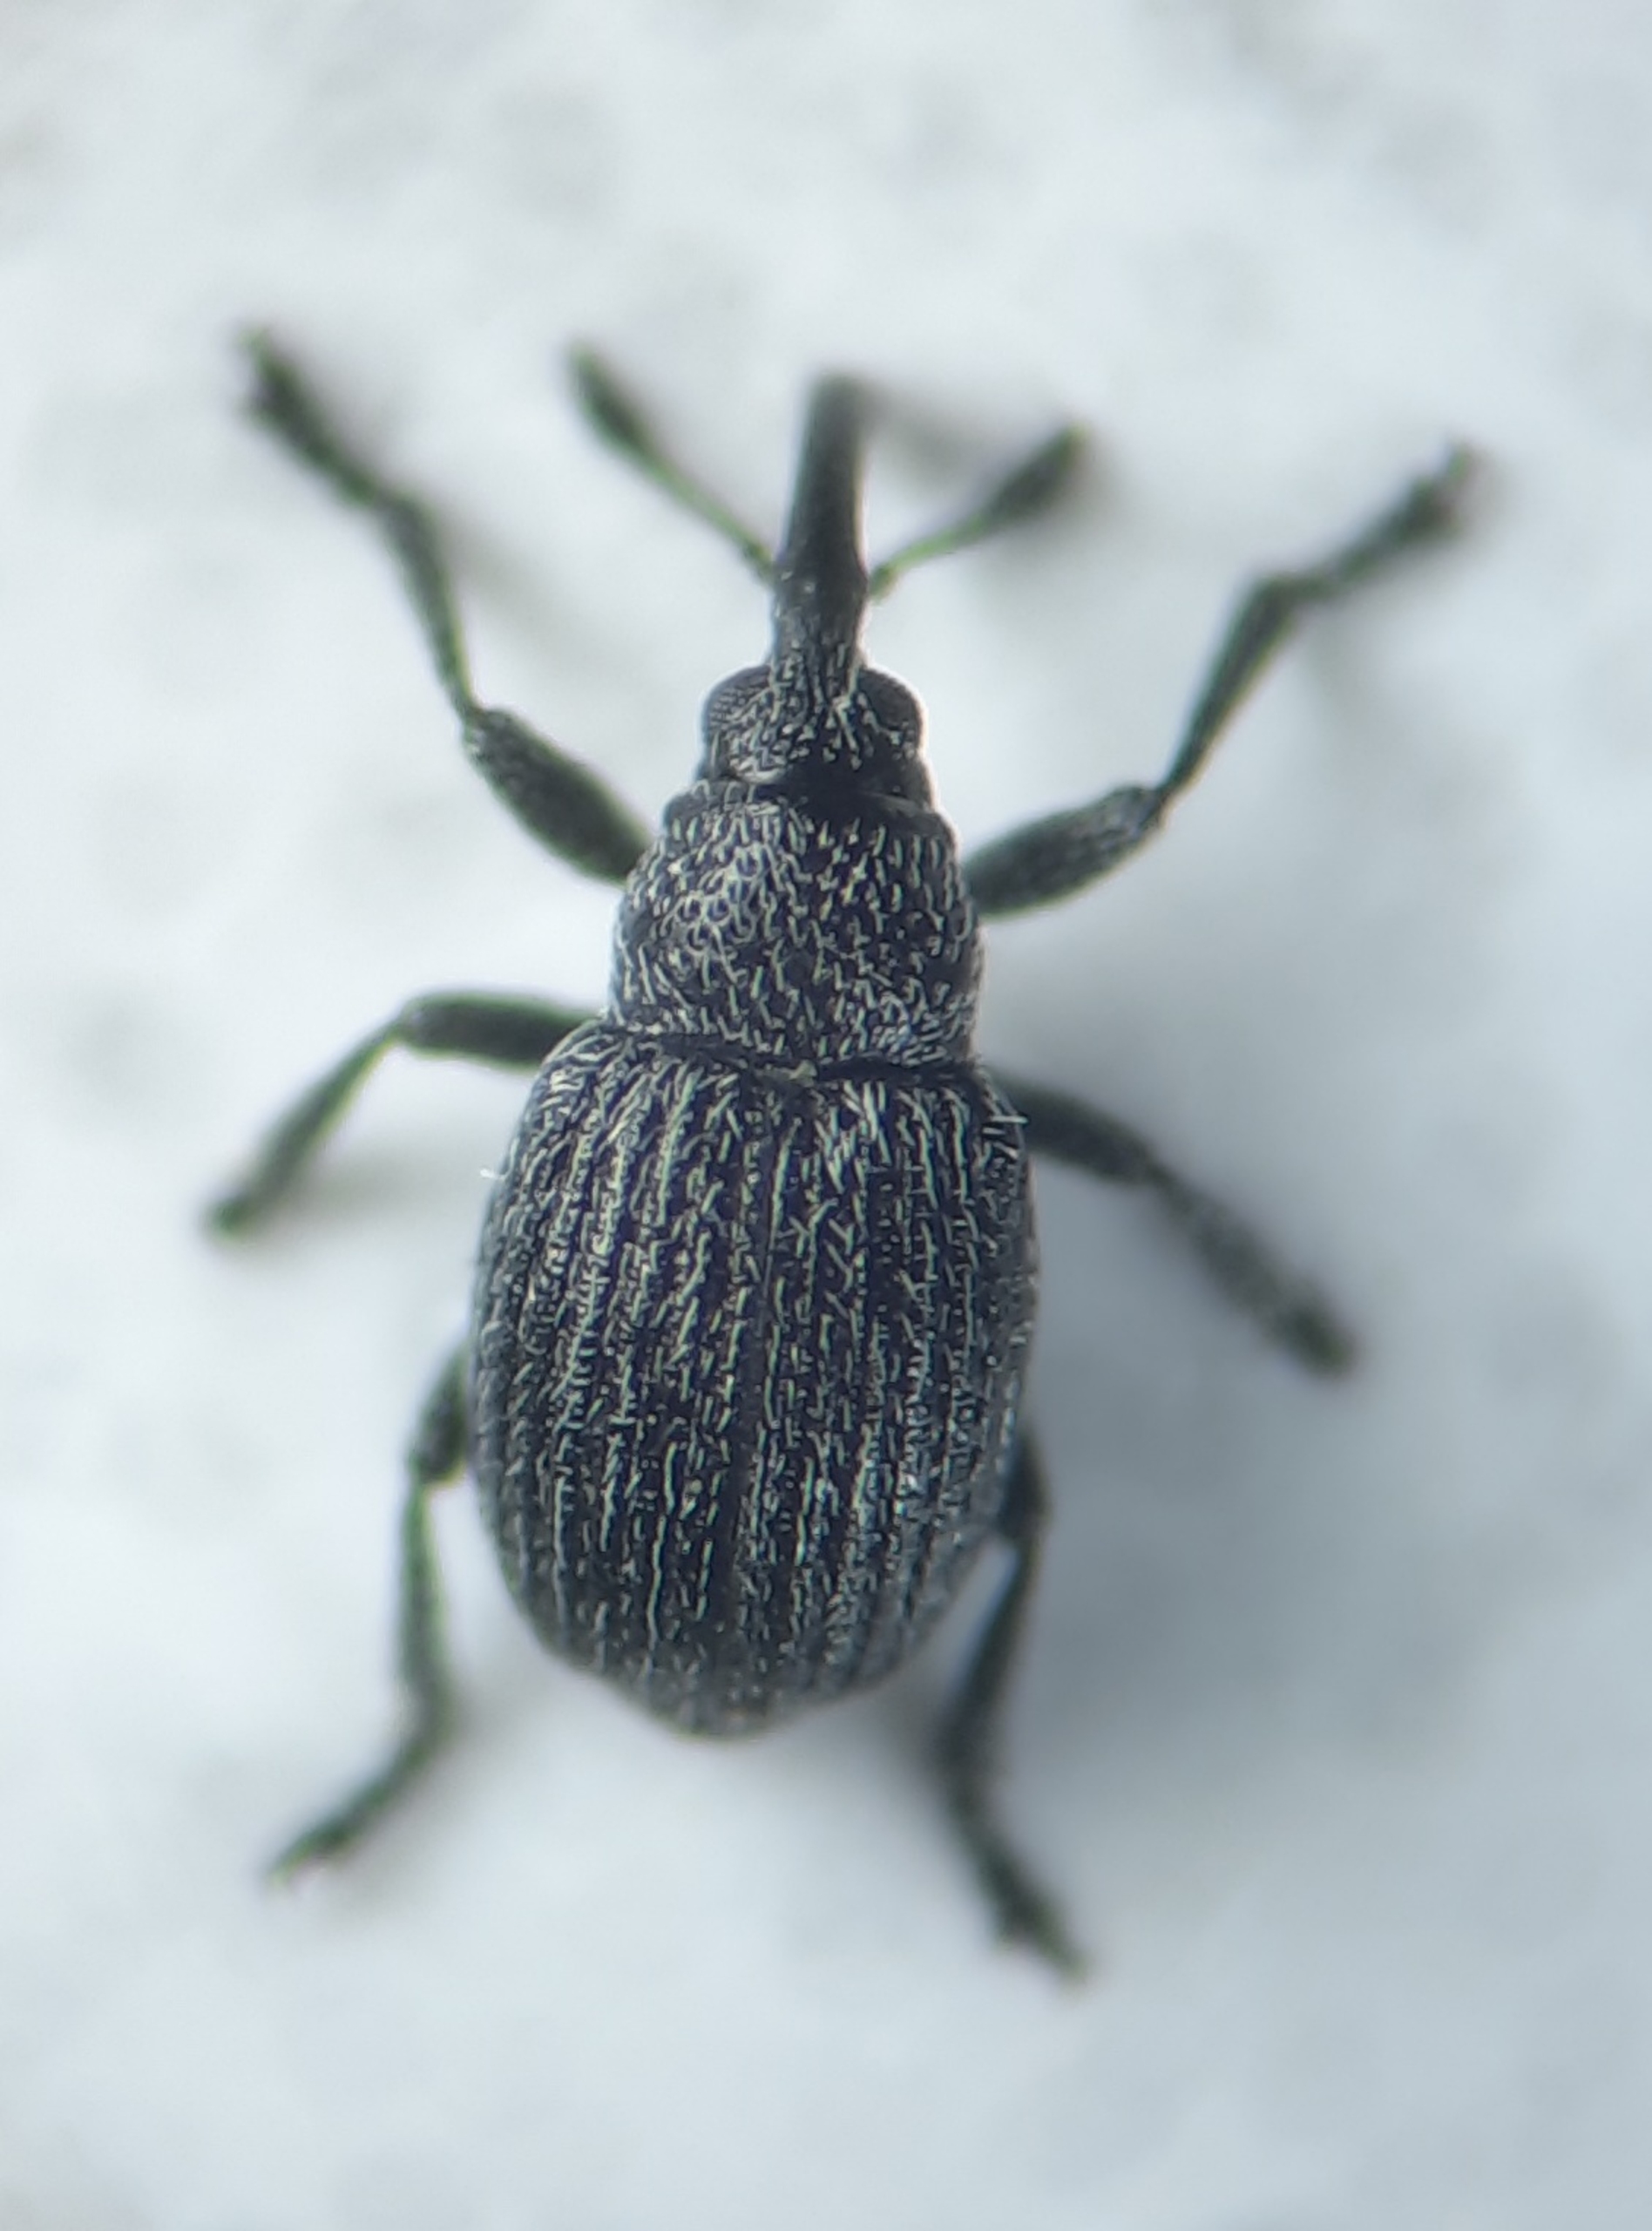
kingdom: Animalia
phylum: Arthropoda
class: Insecta
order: Coleoptera
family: Apionidae
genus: Squamapion
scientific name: Squamapion atomarium
